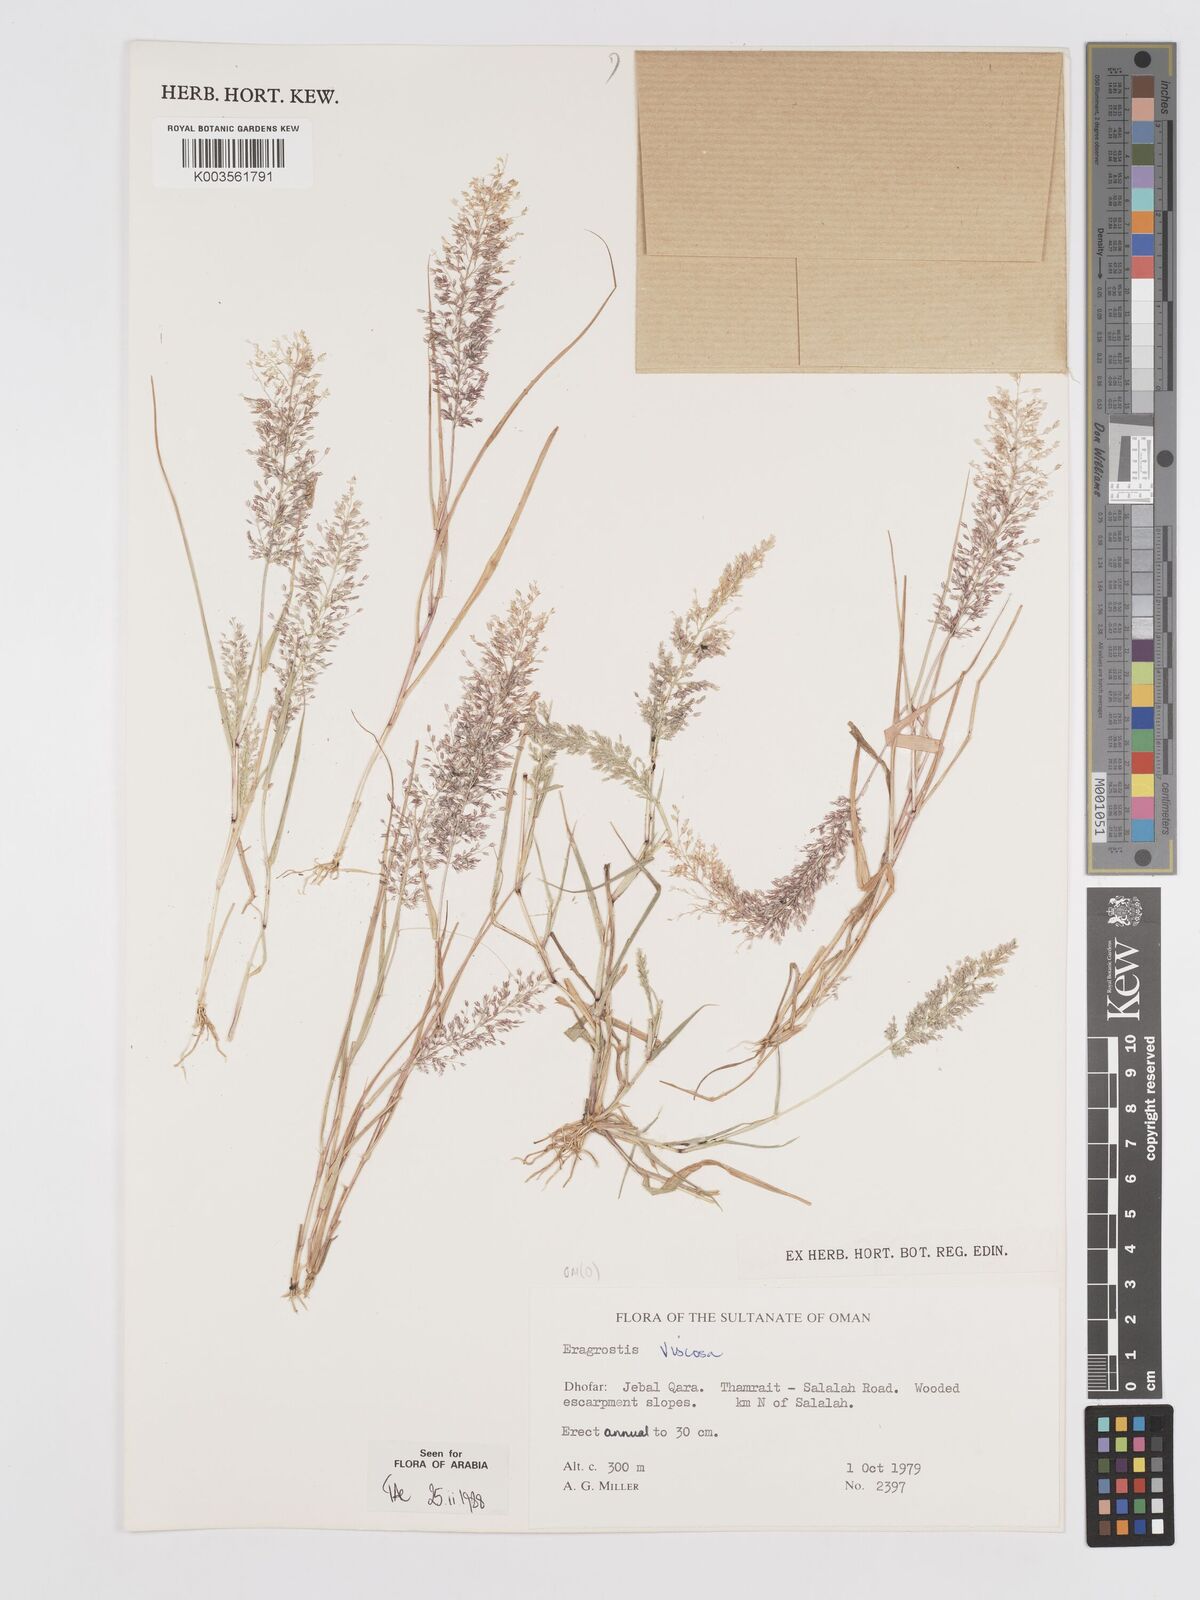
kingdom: Plantae
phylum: Tracheophyta
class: Liliopsida
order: Poales
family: Poaceae
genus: Eragrostis
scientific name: Eragrostis viscosa
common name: Sticky love grass
